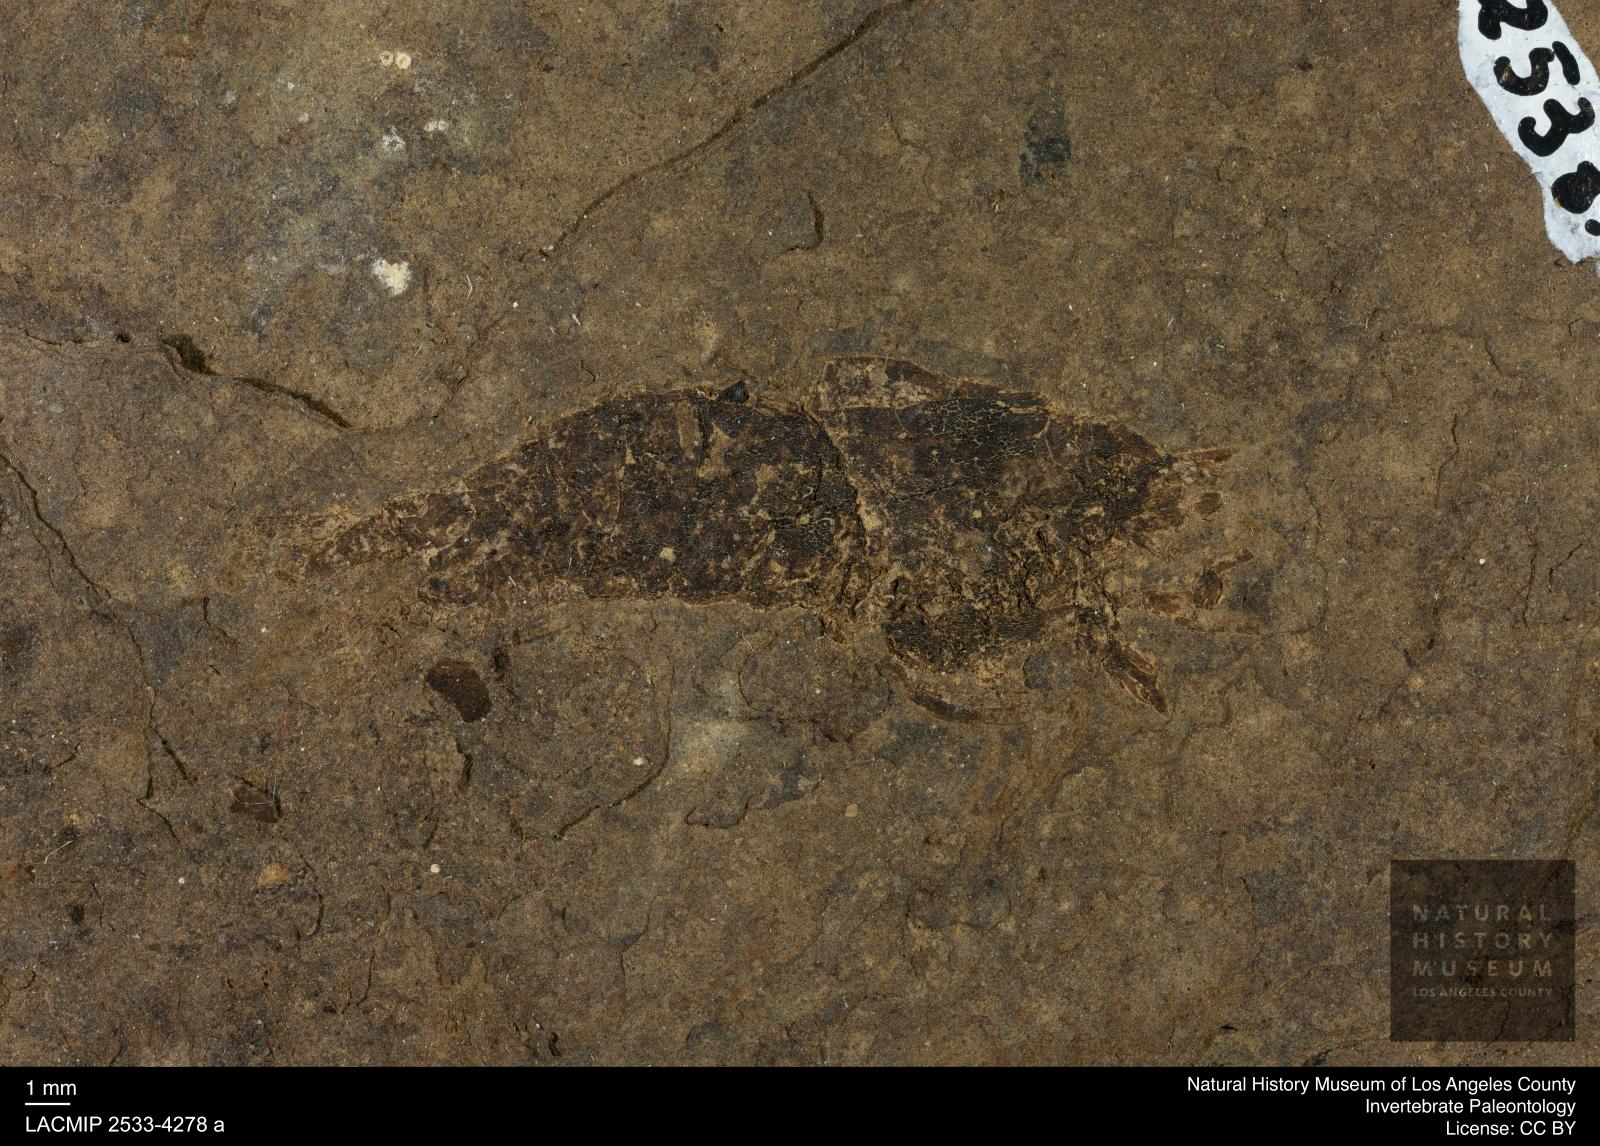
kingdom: Animalia
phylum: Arthropoda
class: Malacostraca
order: Decapoda
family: Palaemonidae
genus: Micropsalis
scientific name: Micropsalis papyracea
